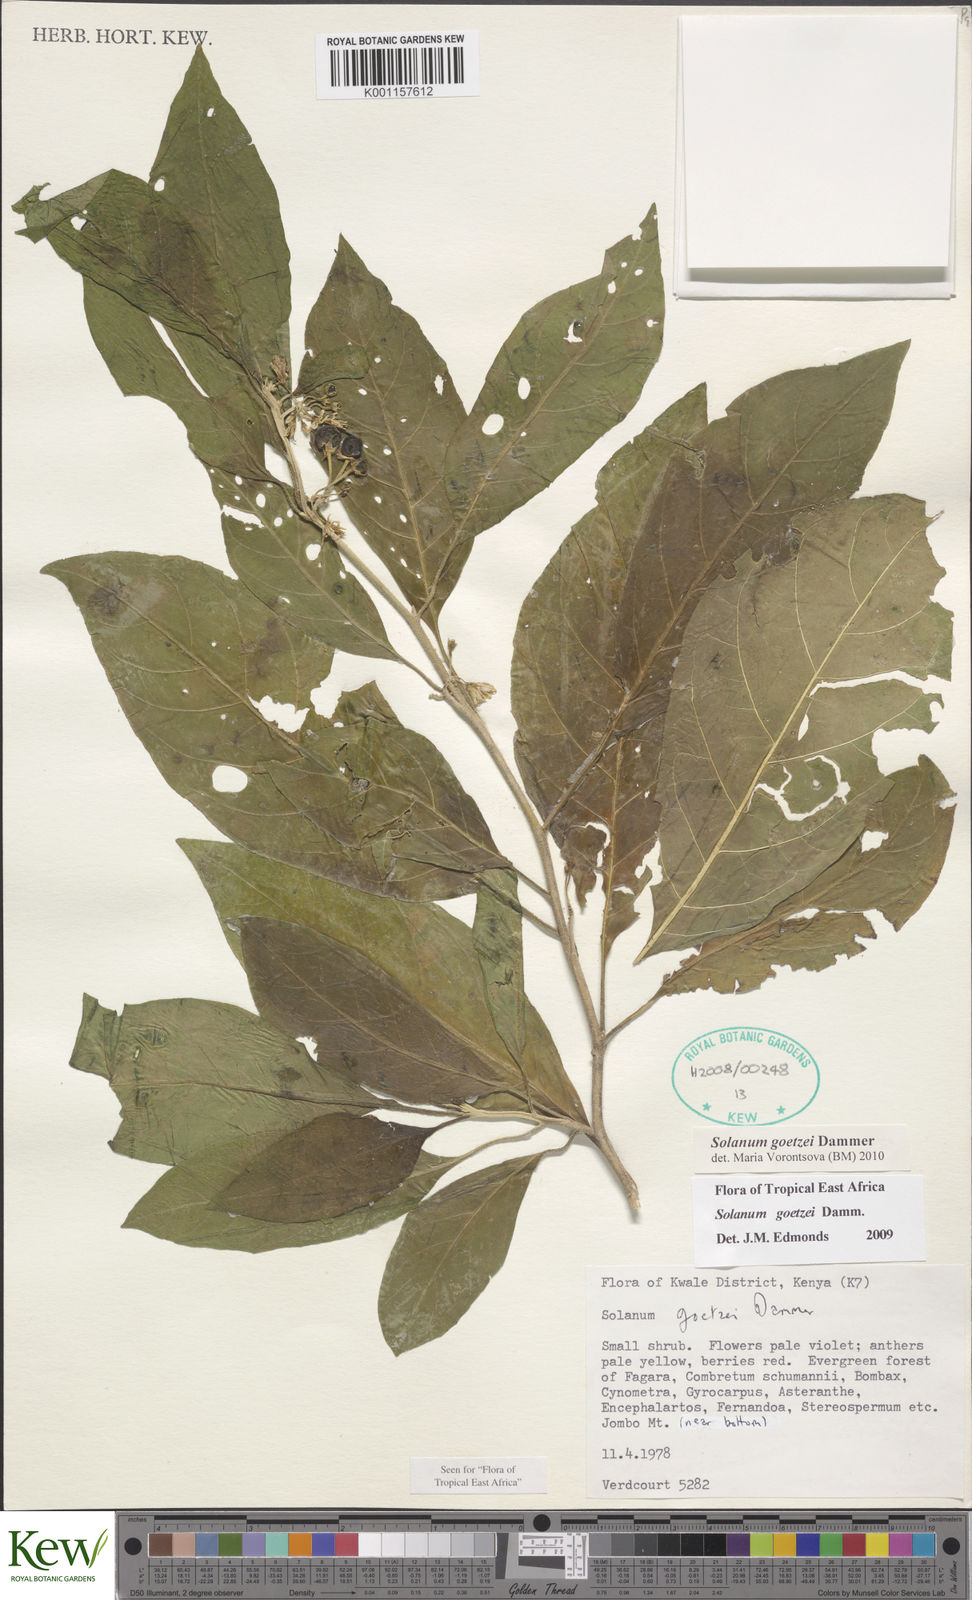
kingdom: Plantae
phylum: Tracheophyta
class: Magnoliopsida
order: Solanales
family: Solanaceae
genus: Solanum
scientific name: Solanum goetzei
